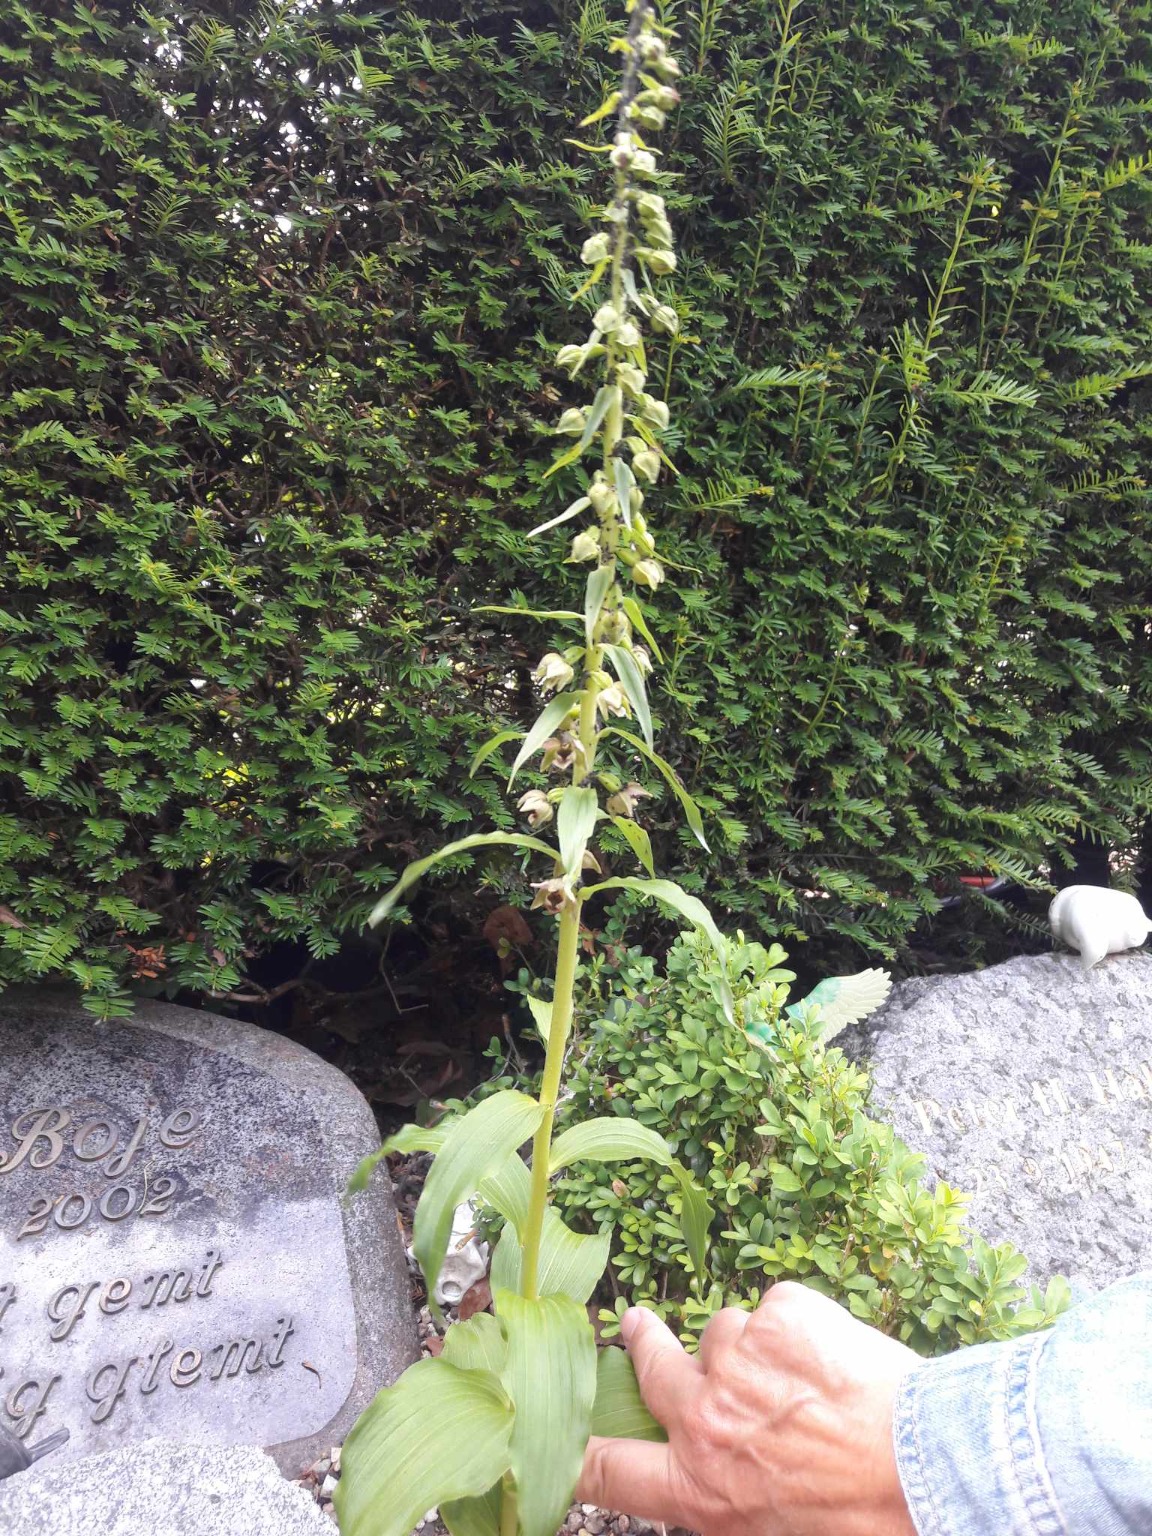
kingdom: Plantae
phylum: Tracheophyta
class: Liliopsida
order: Asparagales
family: Orchidaceae
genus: Epipactis
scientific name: Epipactis helleborine
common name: Skov-hullæbe
